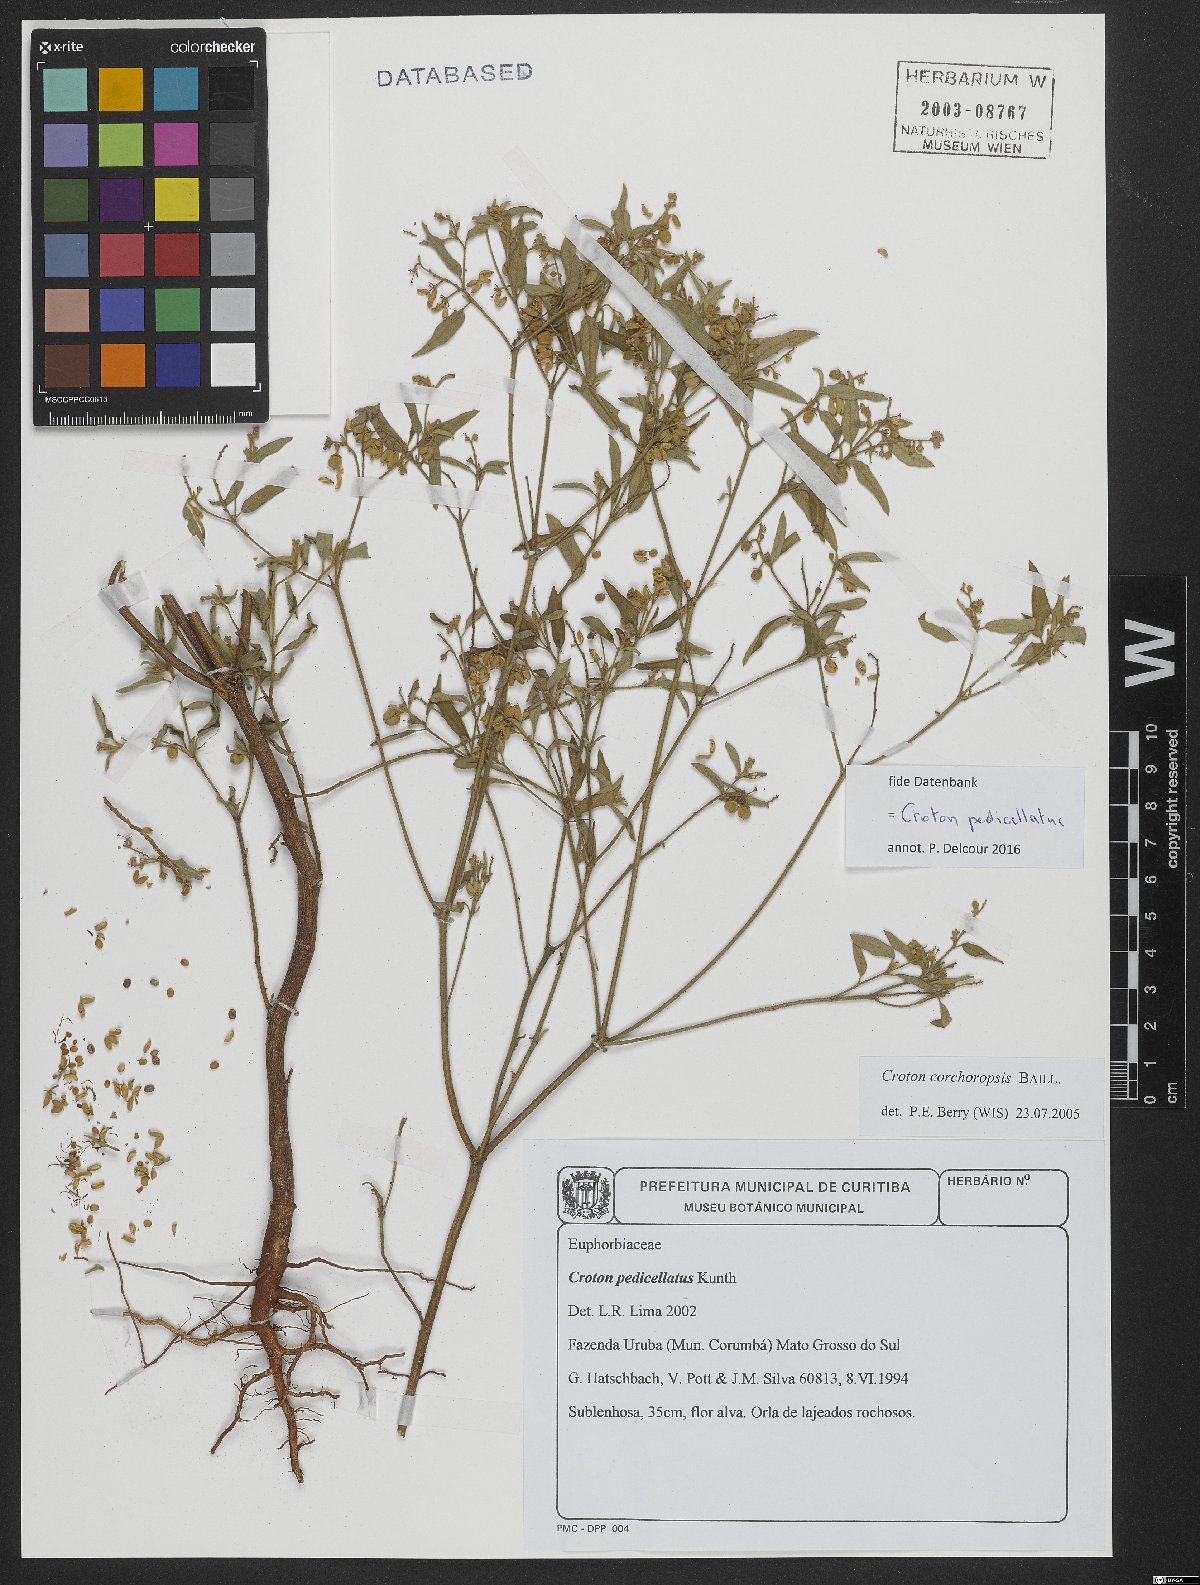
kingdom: Plantae
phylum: Tracheophyta
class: Magnoliopsida
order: Malpighiales
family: Euphorbiaceae
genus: Croton
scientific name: Croton pedicellatus
